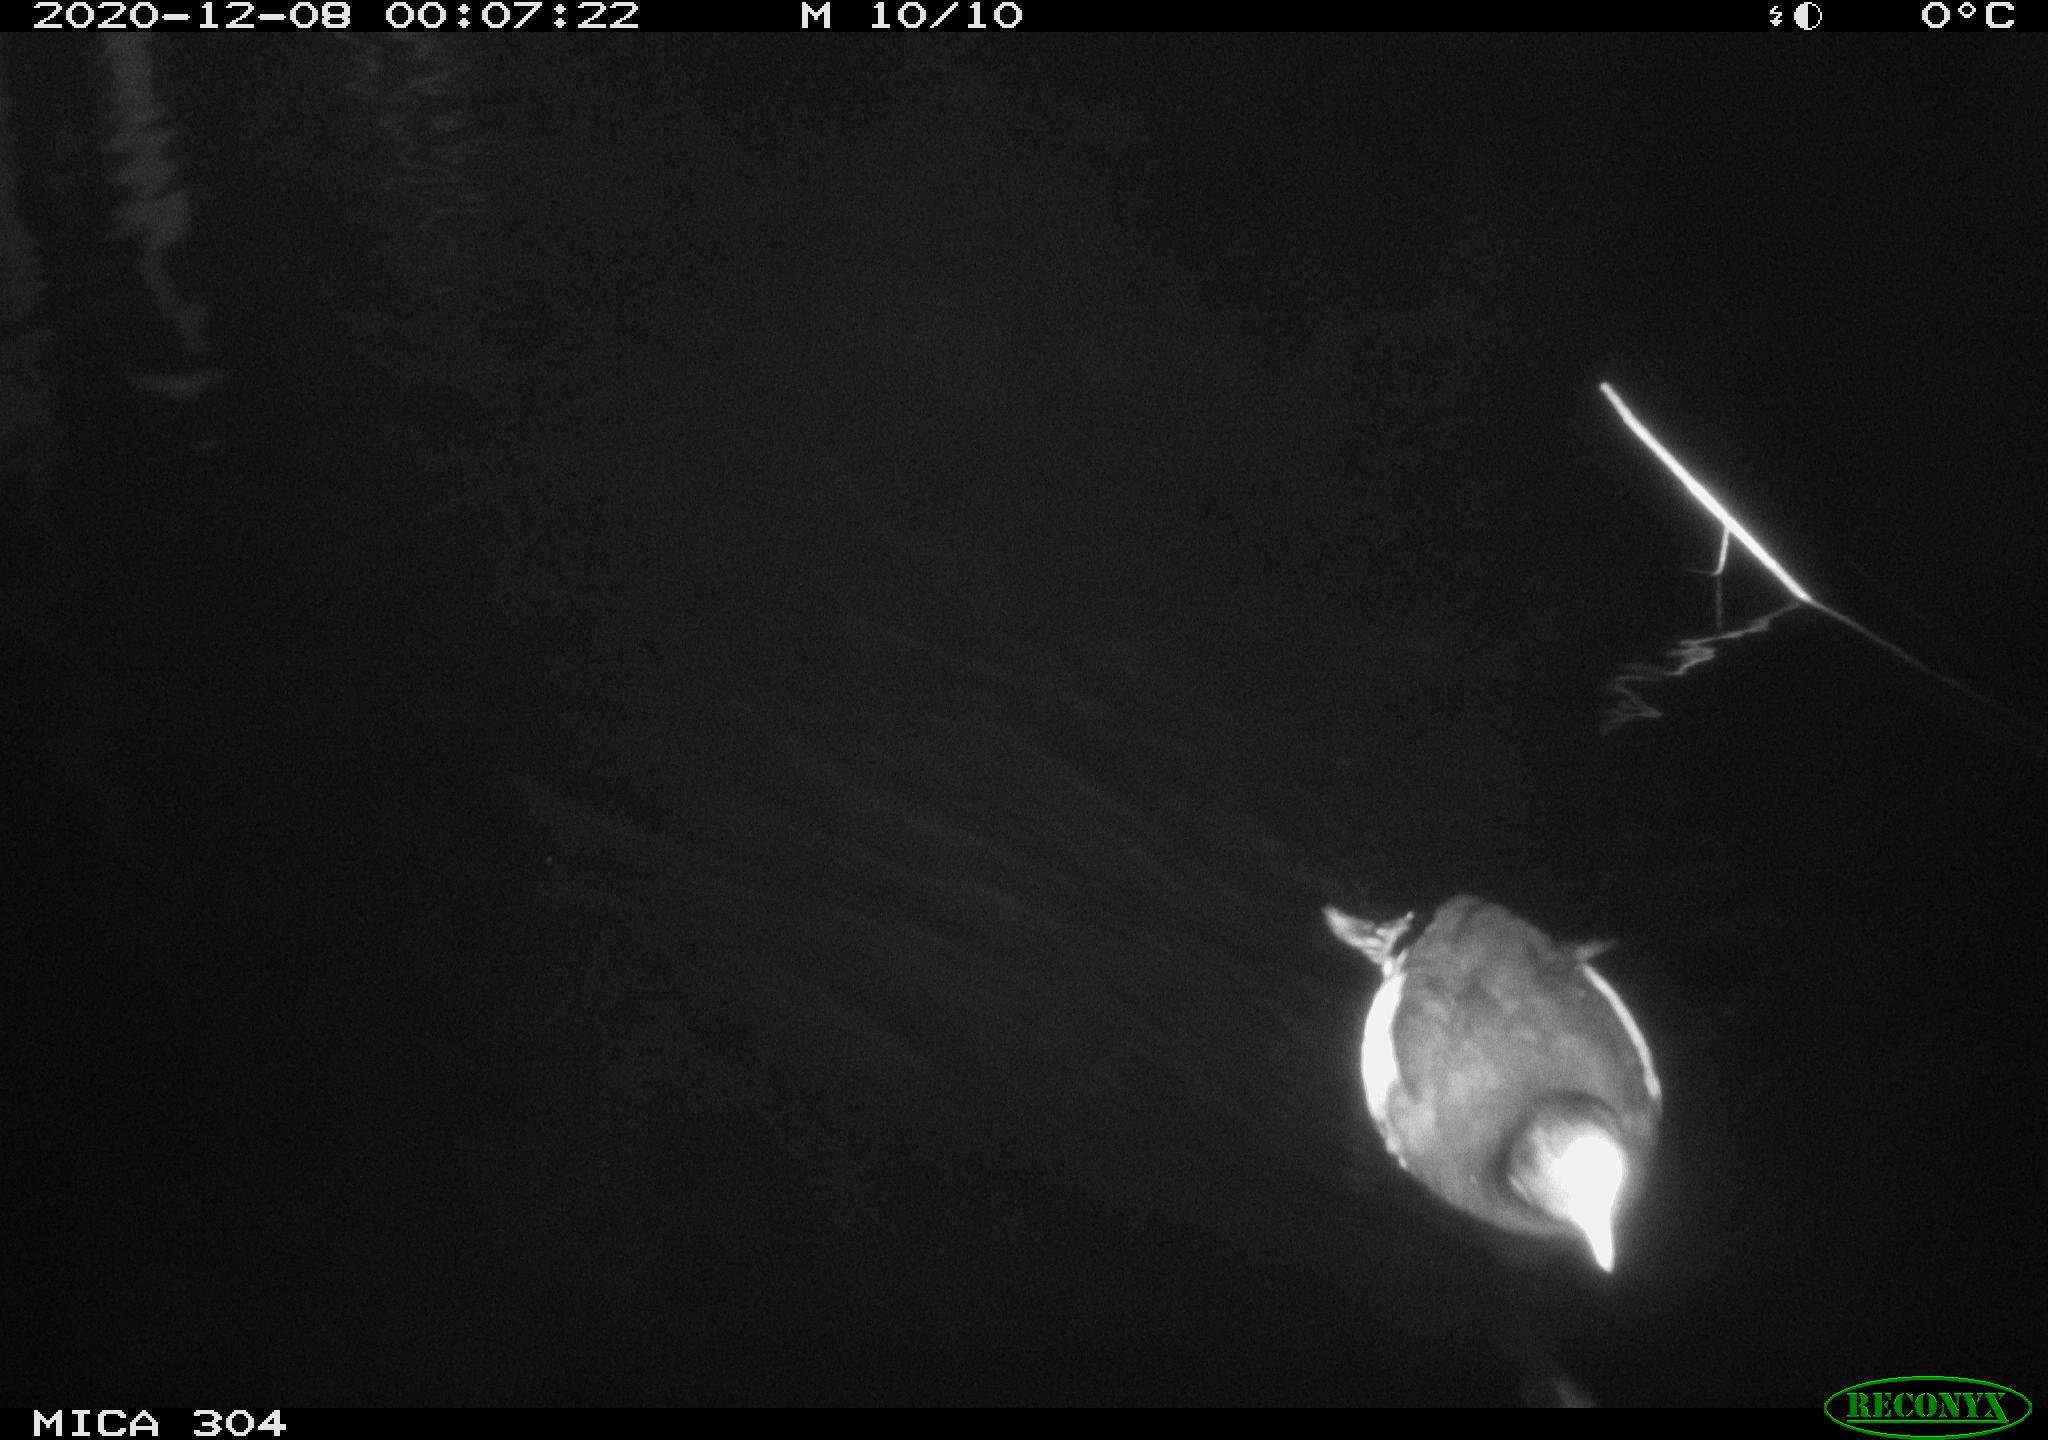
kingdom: Animalia
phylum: Chordata
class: Aves
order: Gruiformes
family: Rallidae
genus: Fulica
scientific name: Fulica atra
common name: Eurasian coot
